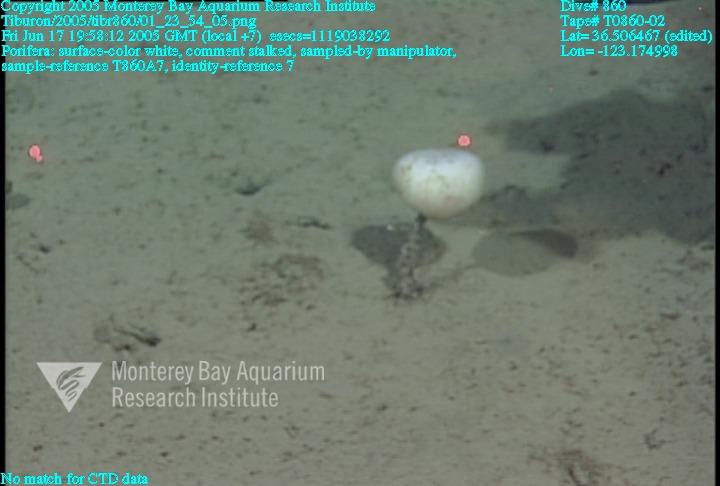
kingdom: Animalia
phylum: Porifera
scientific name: Porifera
